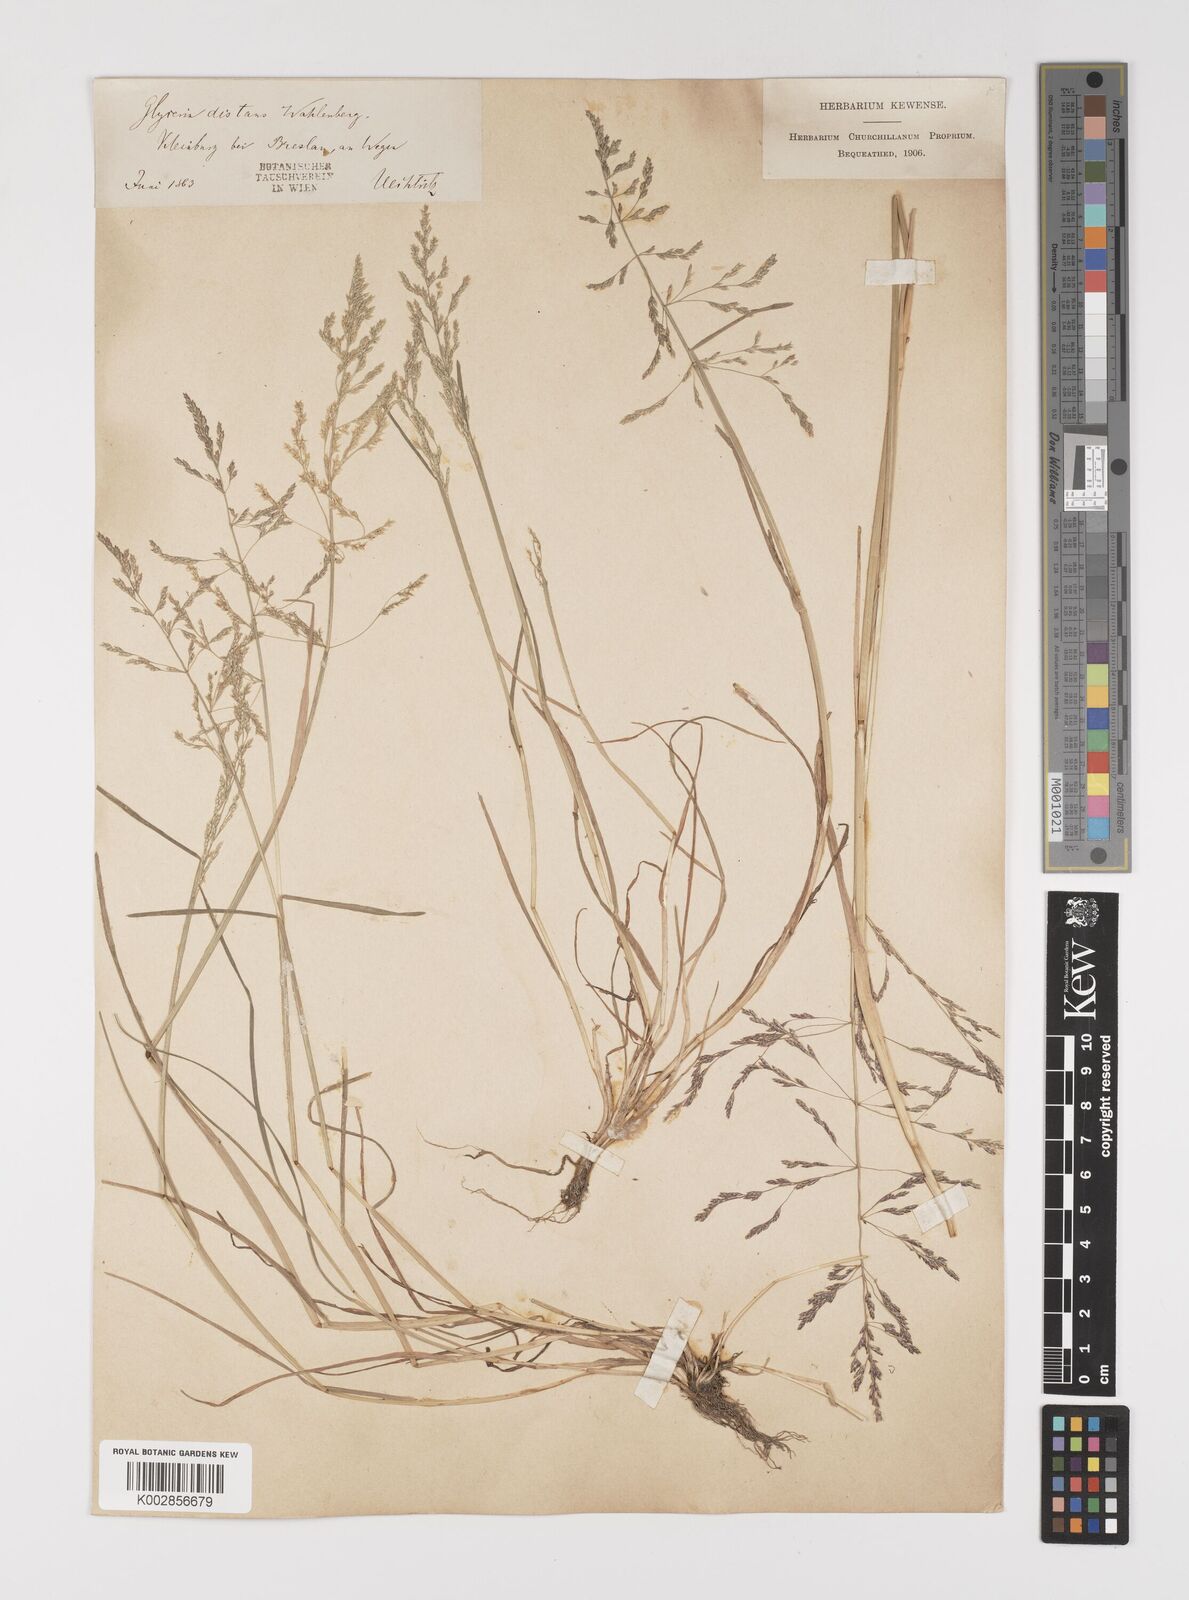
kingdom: Plantae
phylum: Tracheophyta
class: Liliopsida
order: Poales
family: Poaceae
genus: Puccinellia
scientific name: Puccinellia
